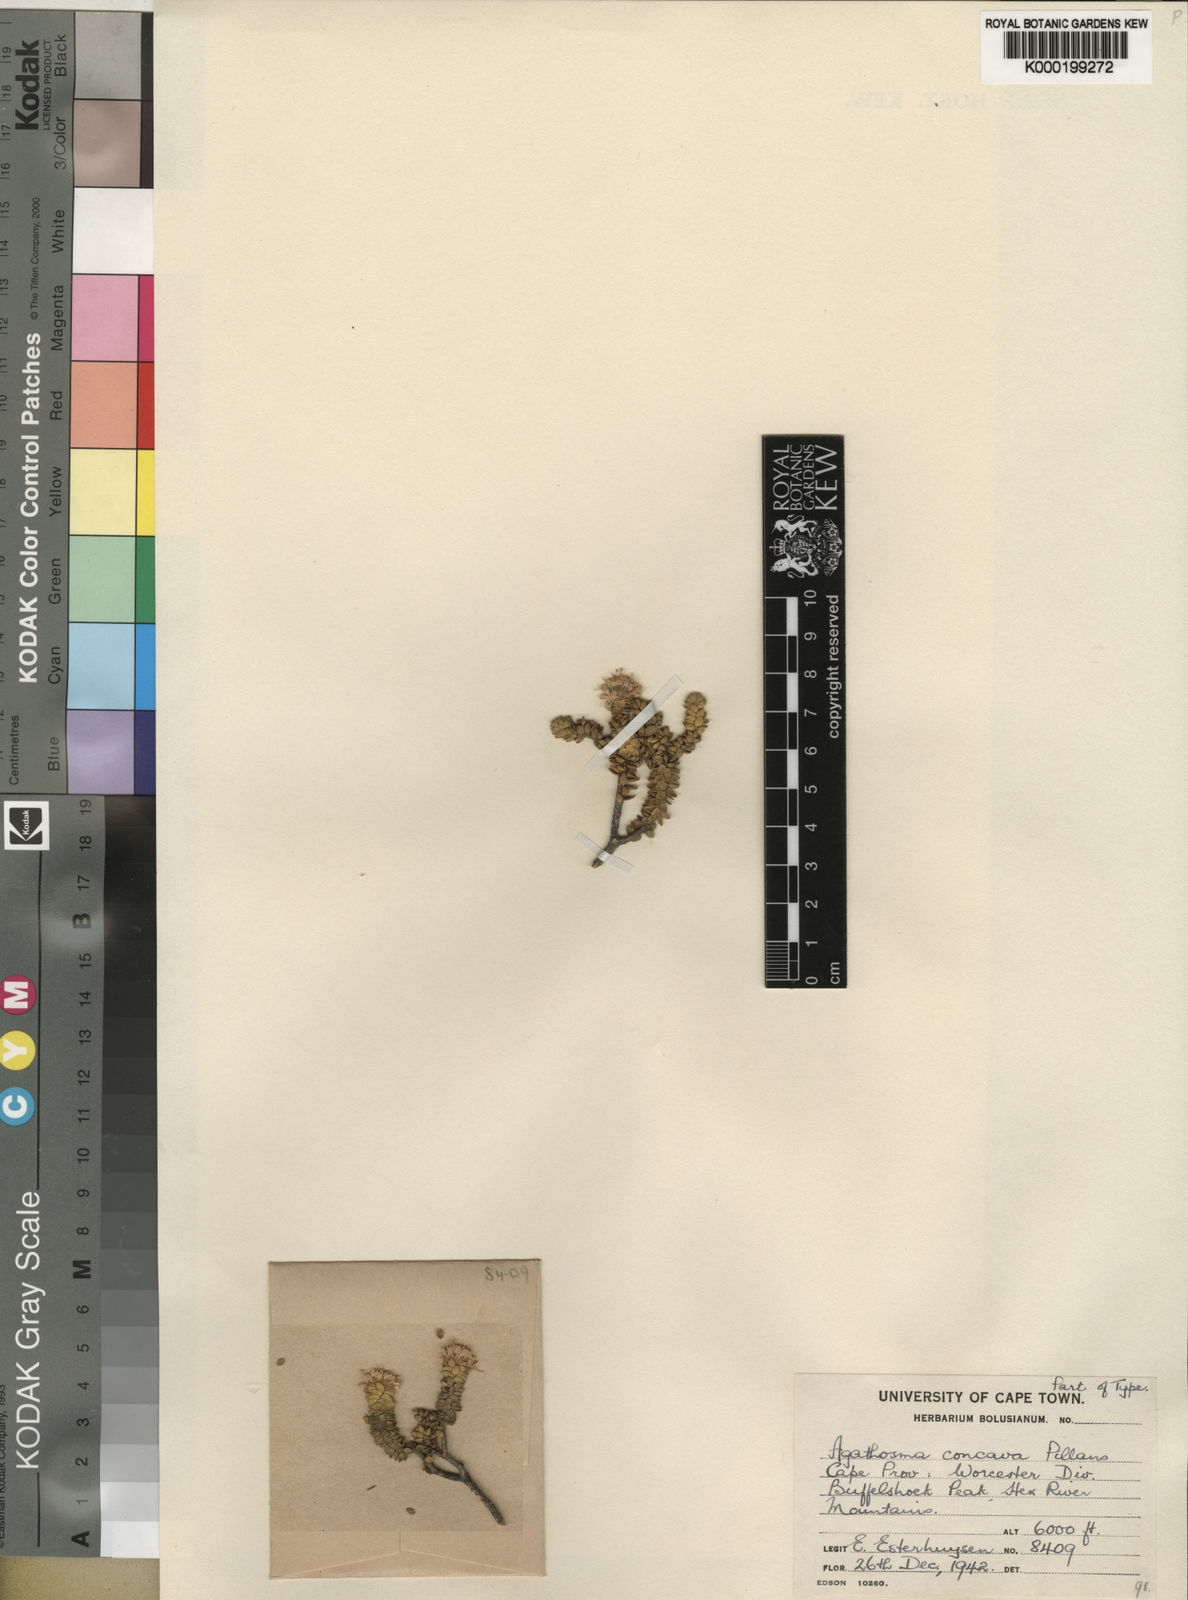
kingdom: Plantae
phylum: Tracheophyta
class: Magnoliopsida
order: Sapindales
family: Rutaceae
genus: Agathosma
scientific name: Agathosma concava
